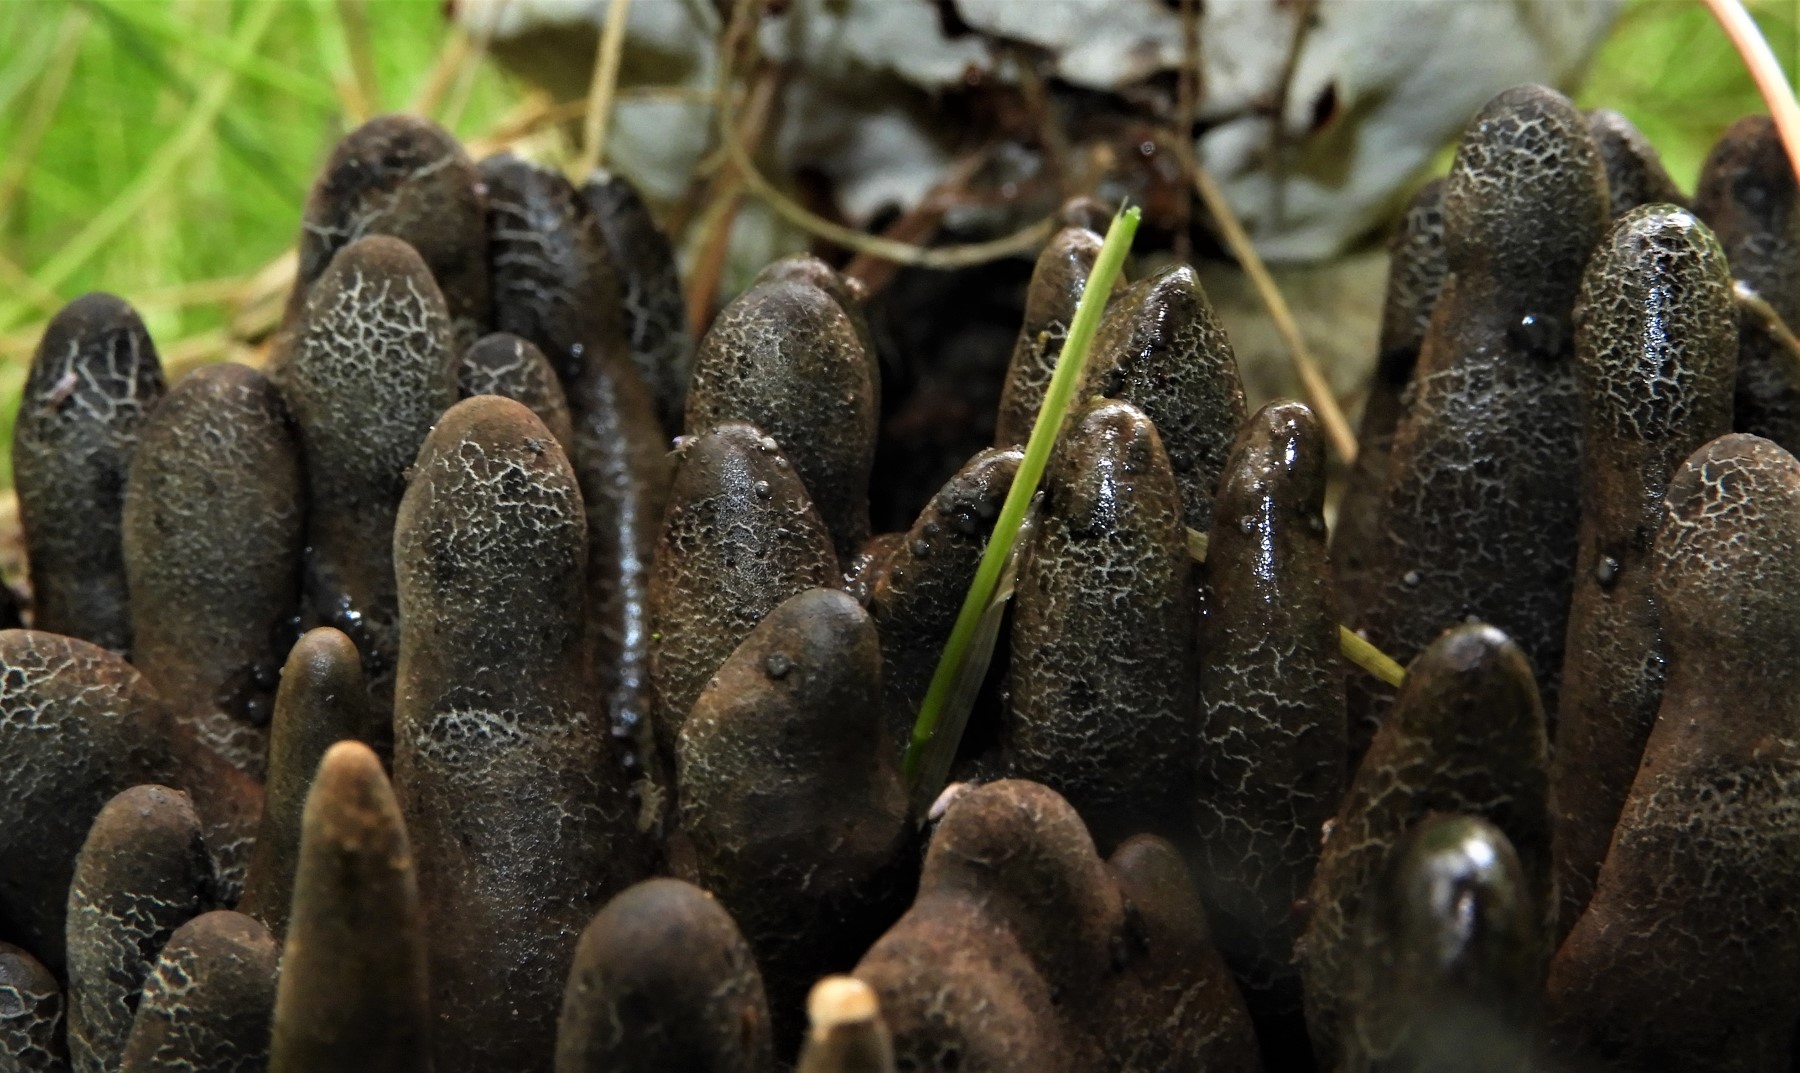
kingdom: Fungi
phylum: Ascomycota
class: Sordariomycetes
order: Xylariales
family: Xylariaceae
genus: Xylaria
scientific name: Xylaria polymorpha
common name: kølle-stødsvamp
